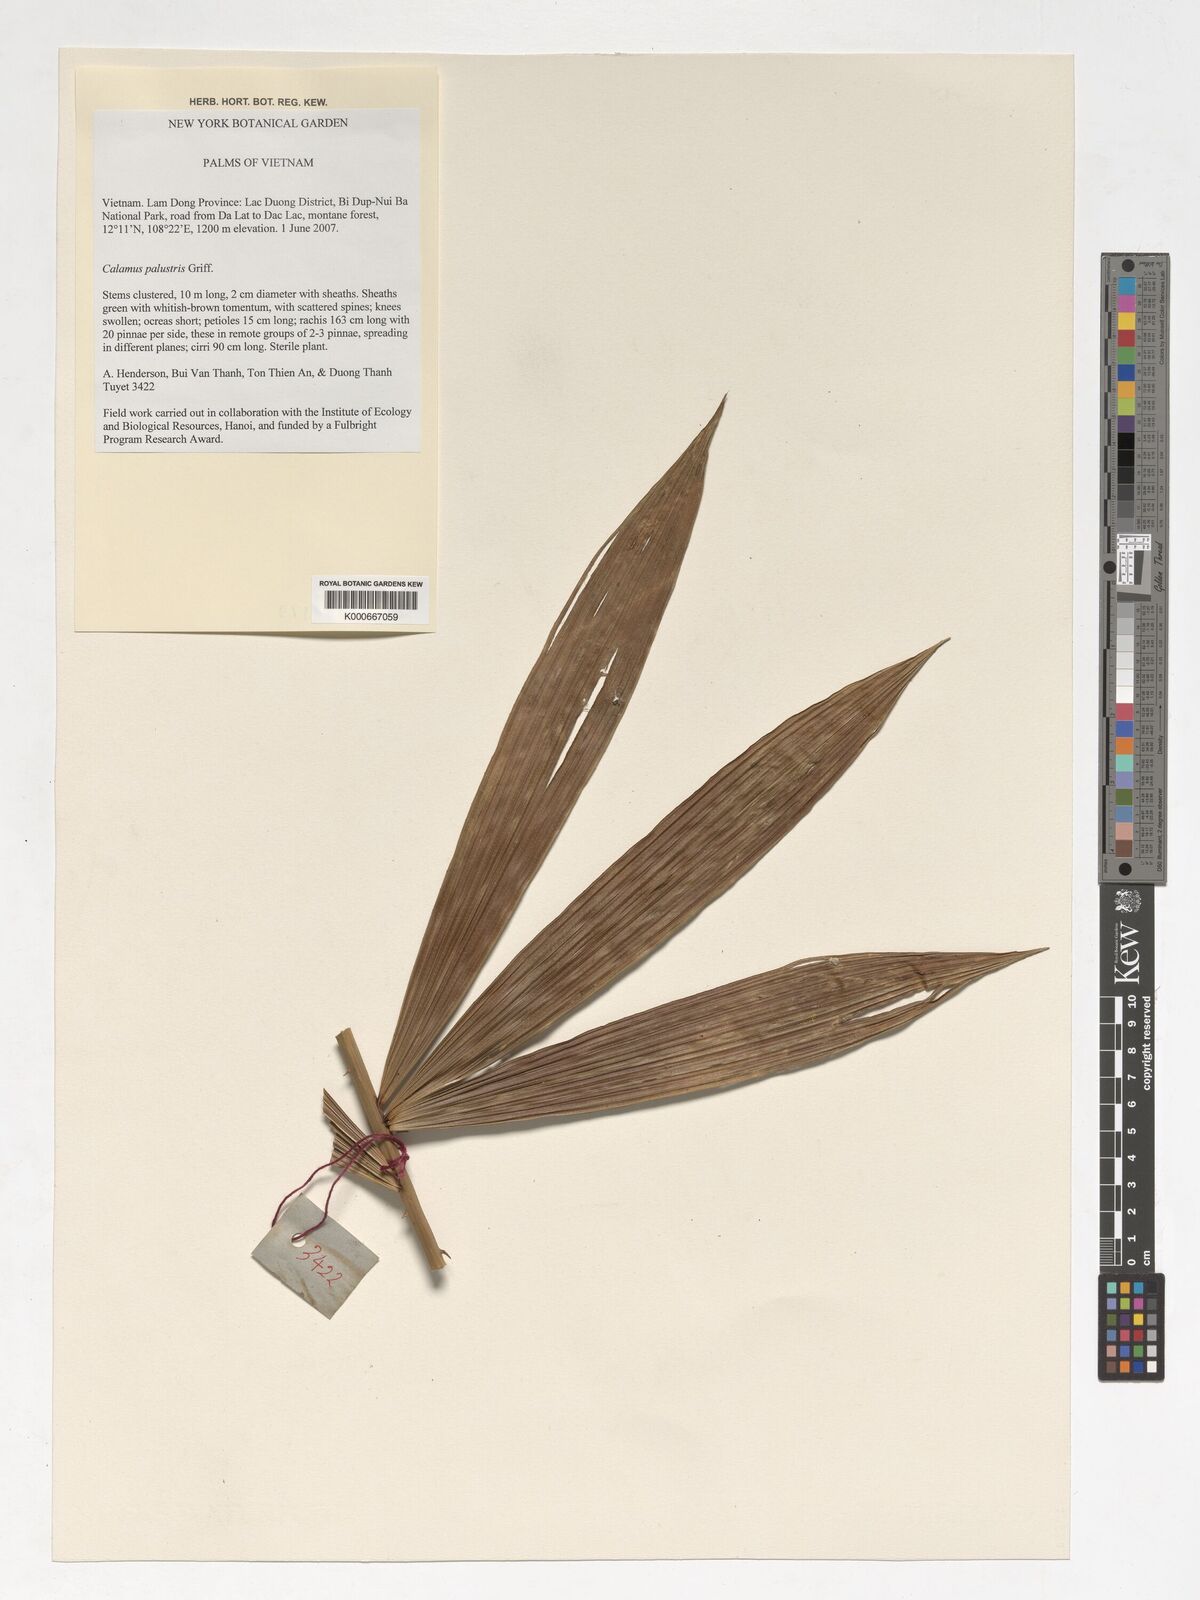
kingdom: Plantae
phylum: Tracheophyta
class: Liliopsida
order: Arecales
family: Arecaceae
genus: Calamus
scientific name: Calamus latifolius
